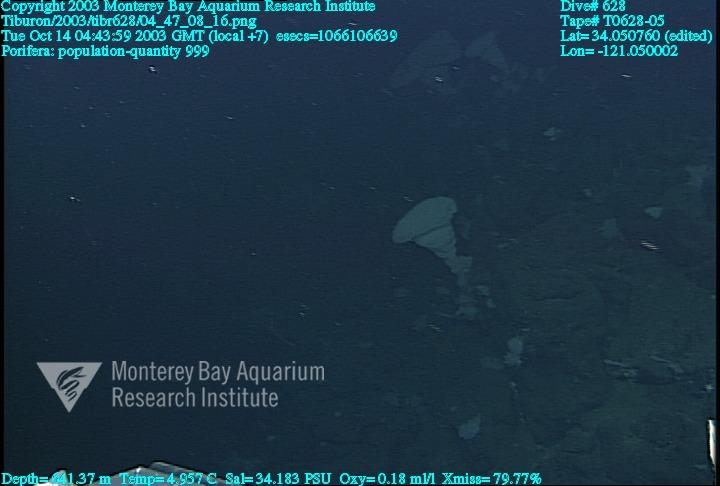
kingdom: Animalia
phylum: Porifera
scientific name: Porifera
